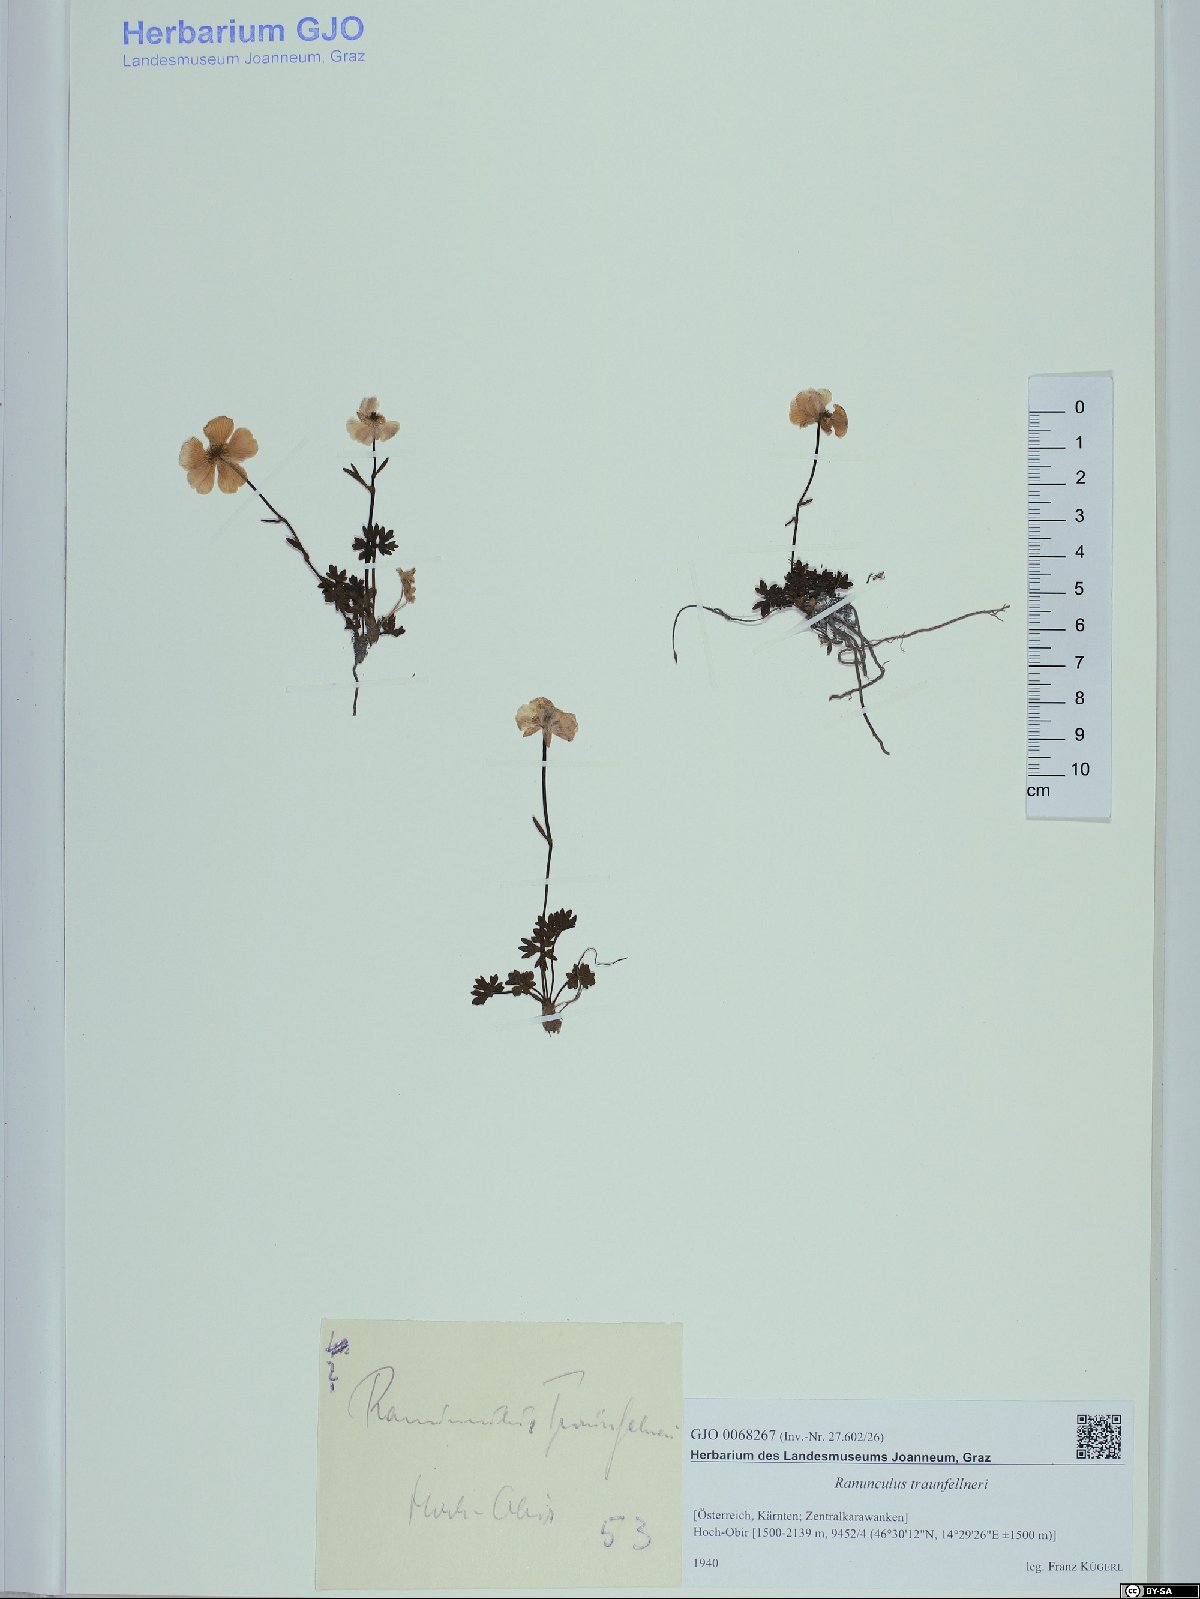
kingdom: Plantae
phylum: Tracheophyta
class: Magnoliopsida
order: Ranunculales
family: Ranunculaceae
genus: Ranunculus
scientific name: Ranunculus traunfellneri
